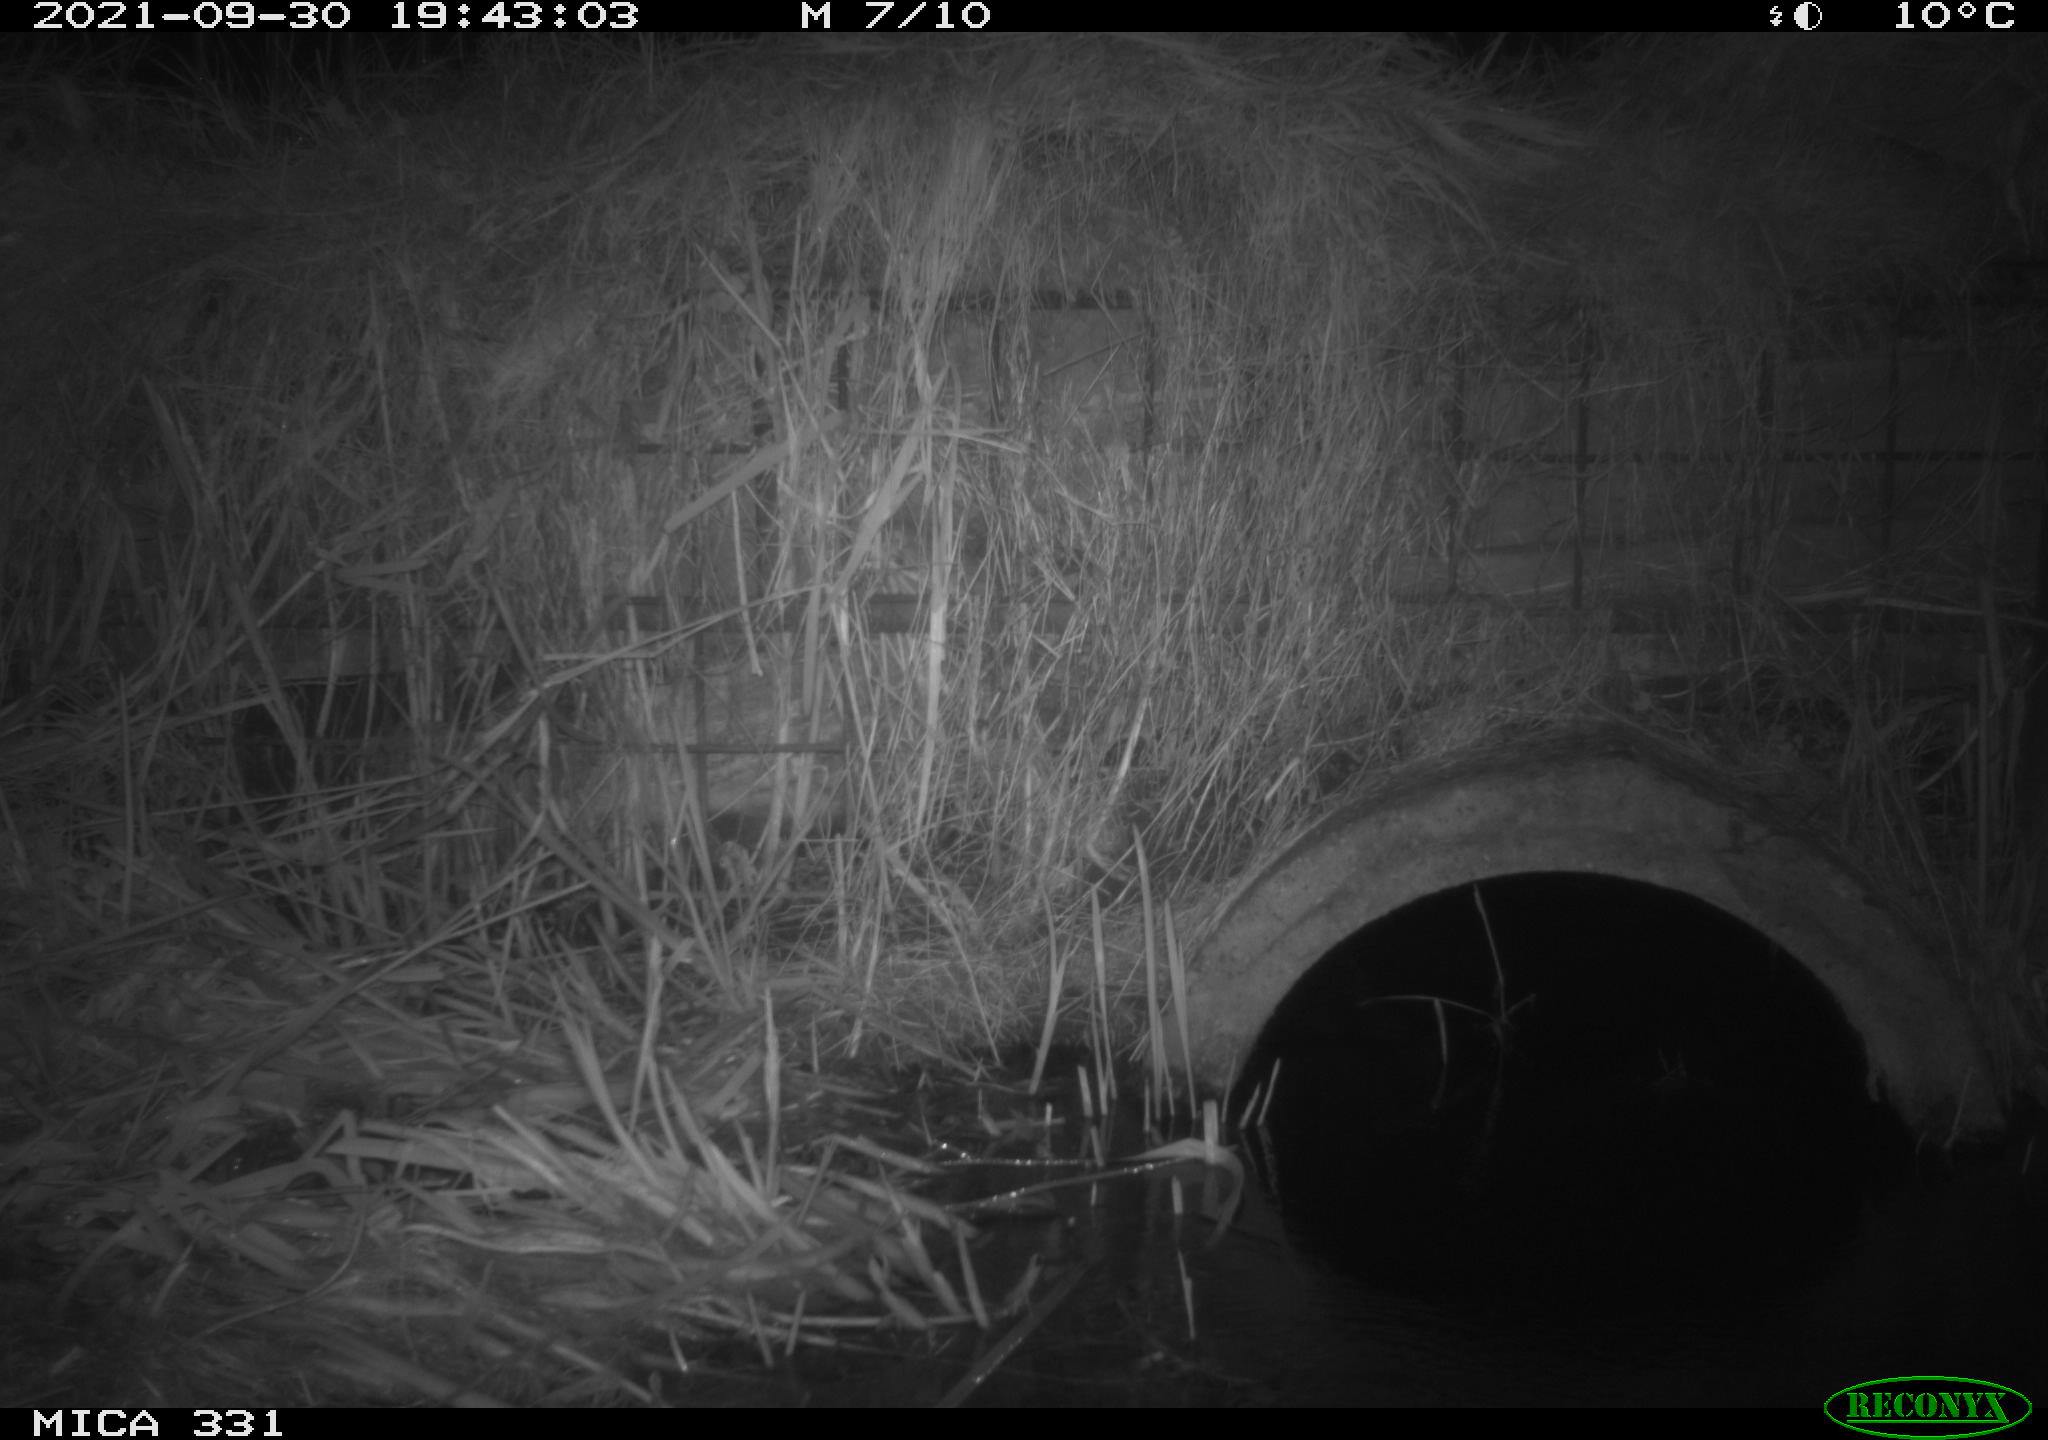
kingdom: Animalia
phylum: Chordata
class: Mammalia
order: Rodentia
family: Muridae
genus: Rattus
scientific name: Rattus norvegicus
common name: Brown rat
